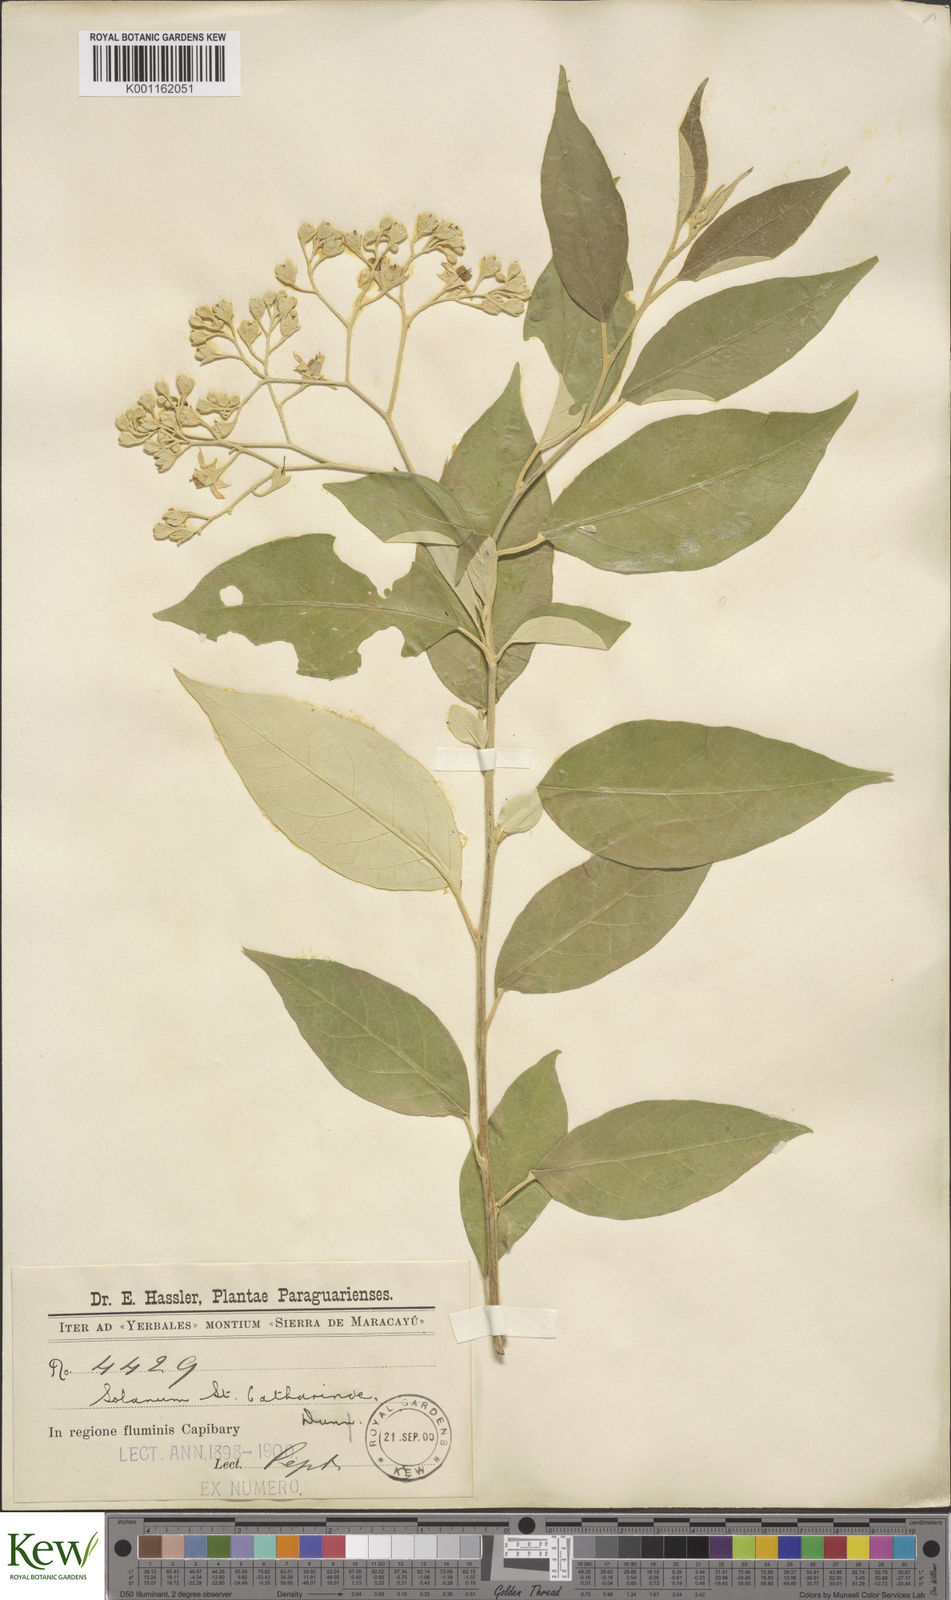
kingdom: Plantae
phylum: Tracheophyta
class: Magnoliopsida
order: Solanales
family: Solanaceae
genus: Solanum
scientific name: Solanum sanctae-catharinae
